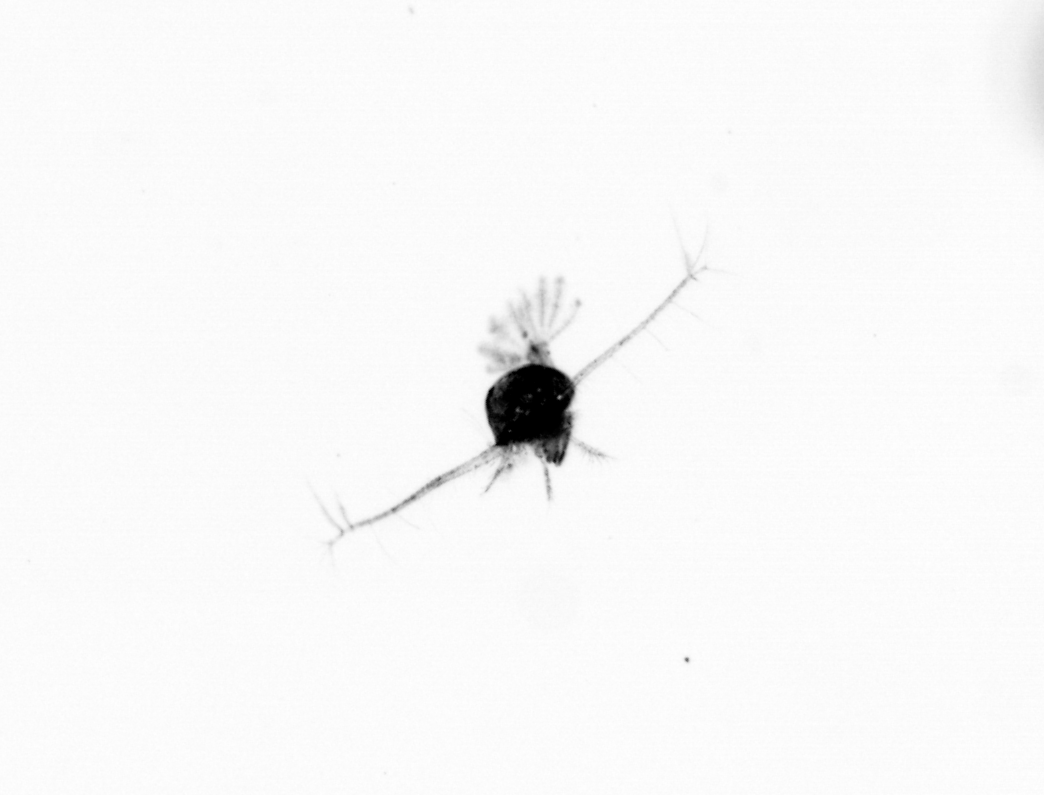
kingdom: Animalia
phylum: Arthropoda
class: Copepoda
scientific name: Copepoda
